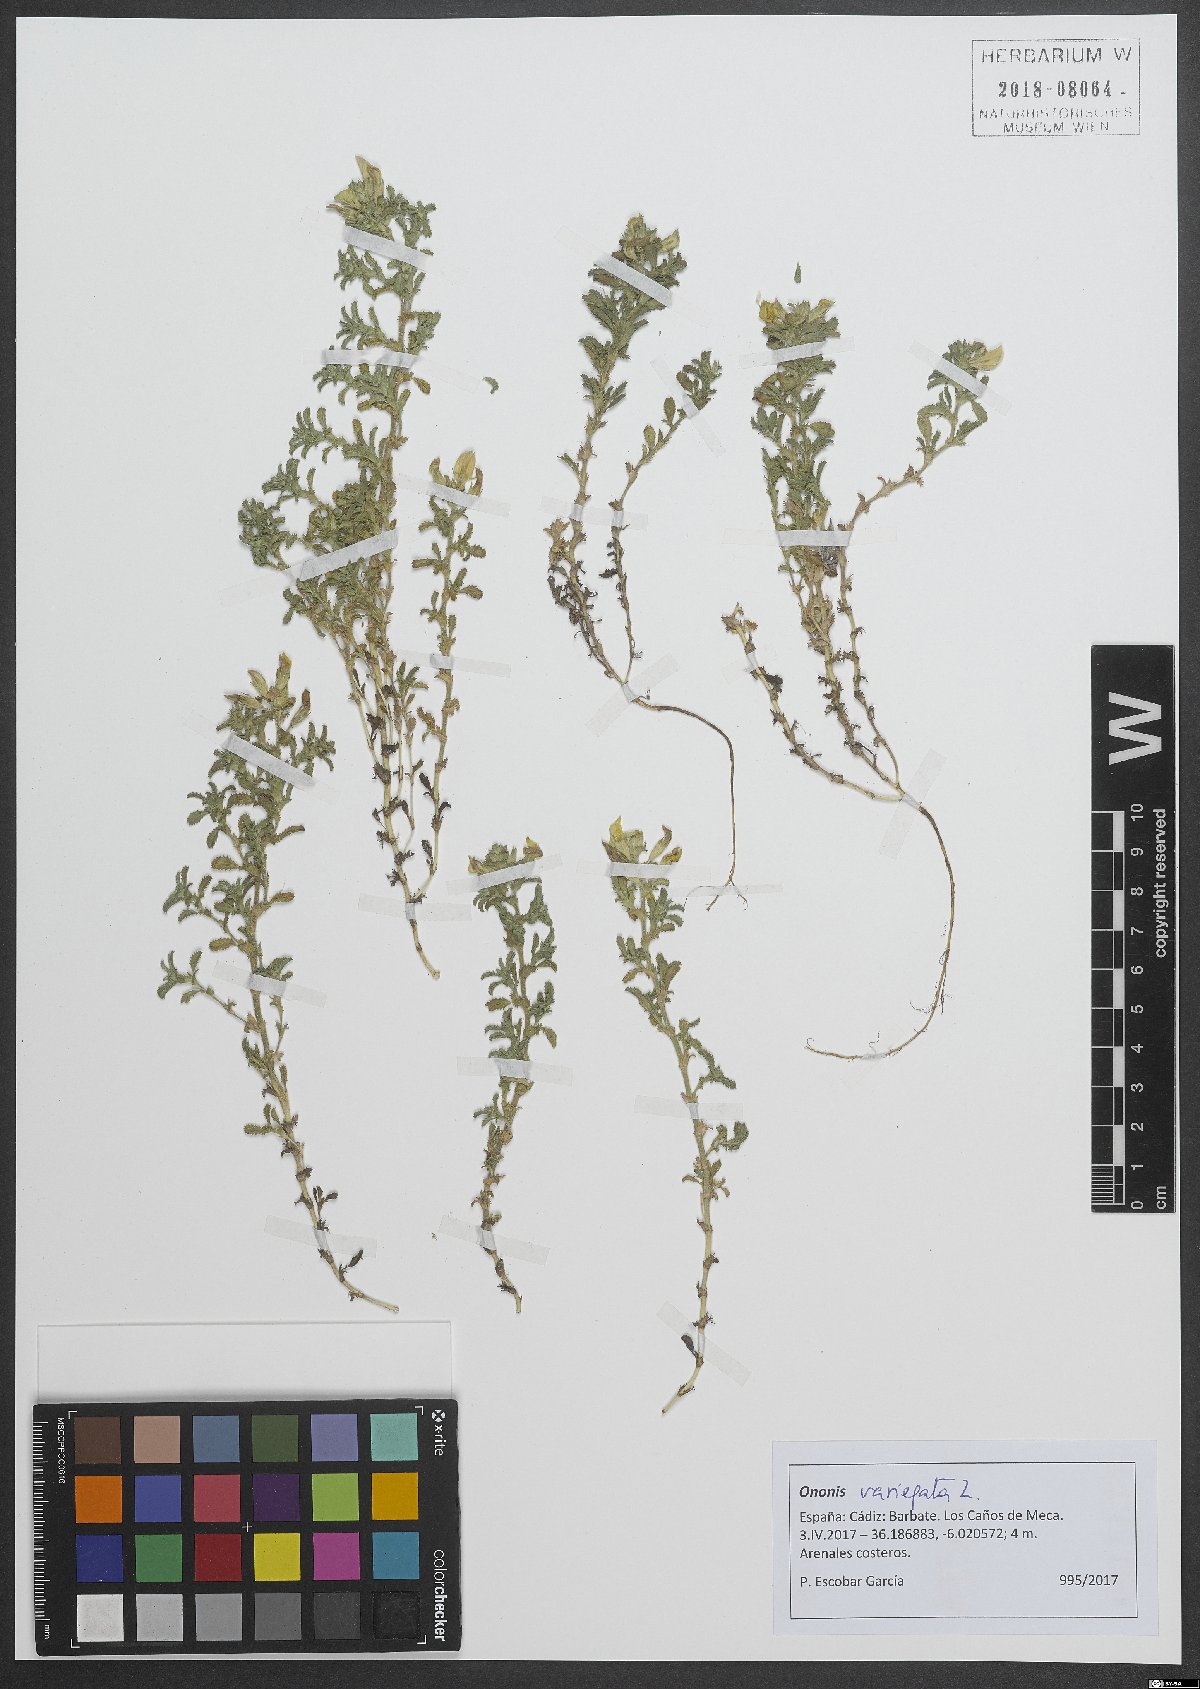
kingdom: Plantae
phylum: Tracheophyta
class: Magnoliopsida
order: Fabales
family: Fabaceae
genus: Ononis
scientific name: Ononis variegata
